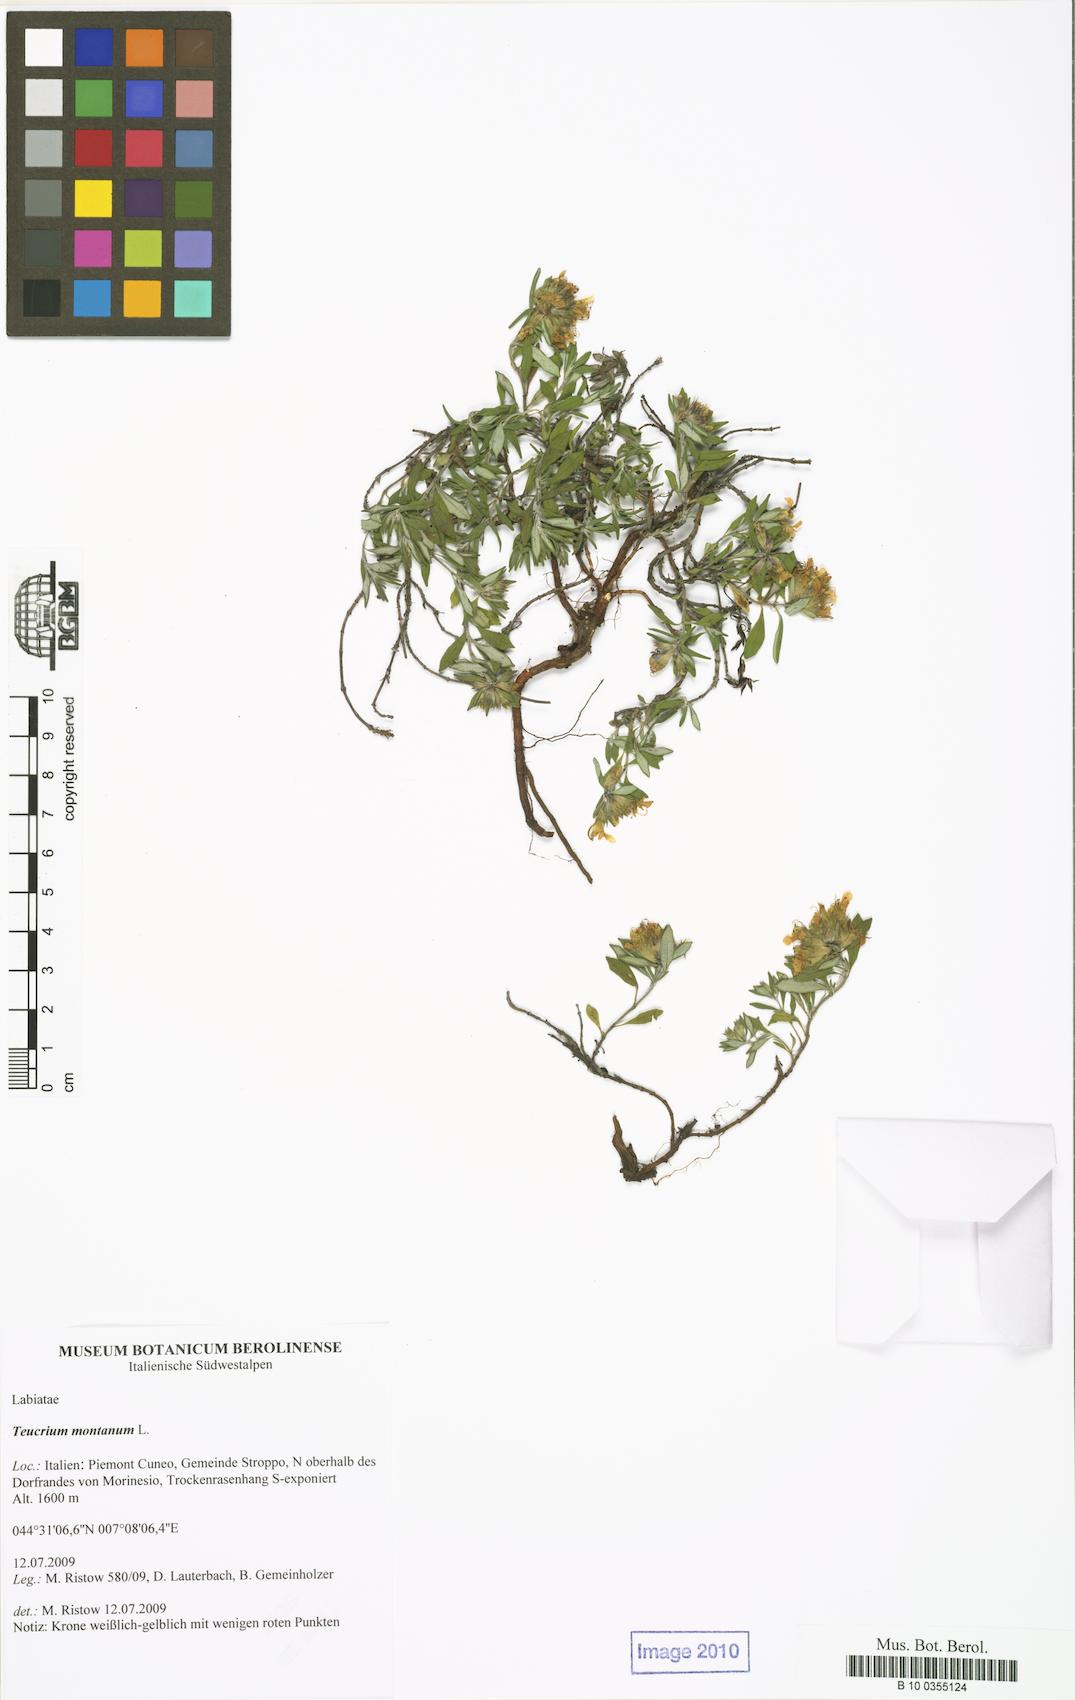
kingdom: Plantae
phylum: Tracheophyta
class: Magnoliopsida
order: Lamiales
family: Lamiaceae
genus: Teucrium
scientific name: Teucrium montanum
